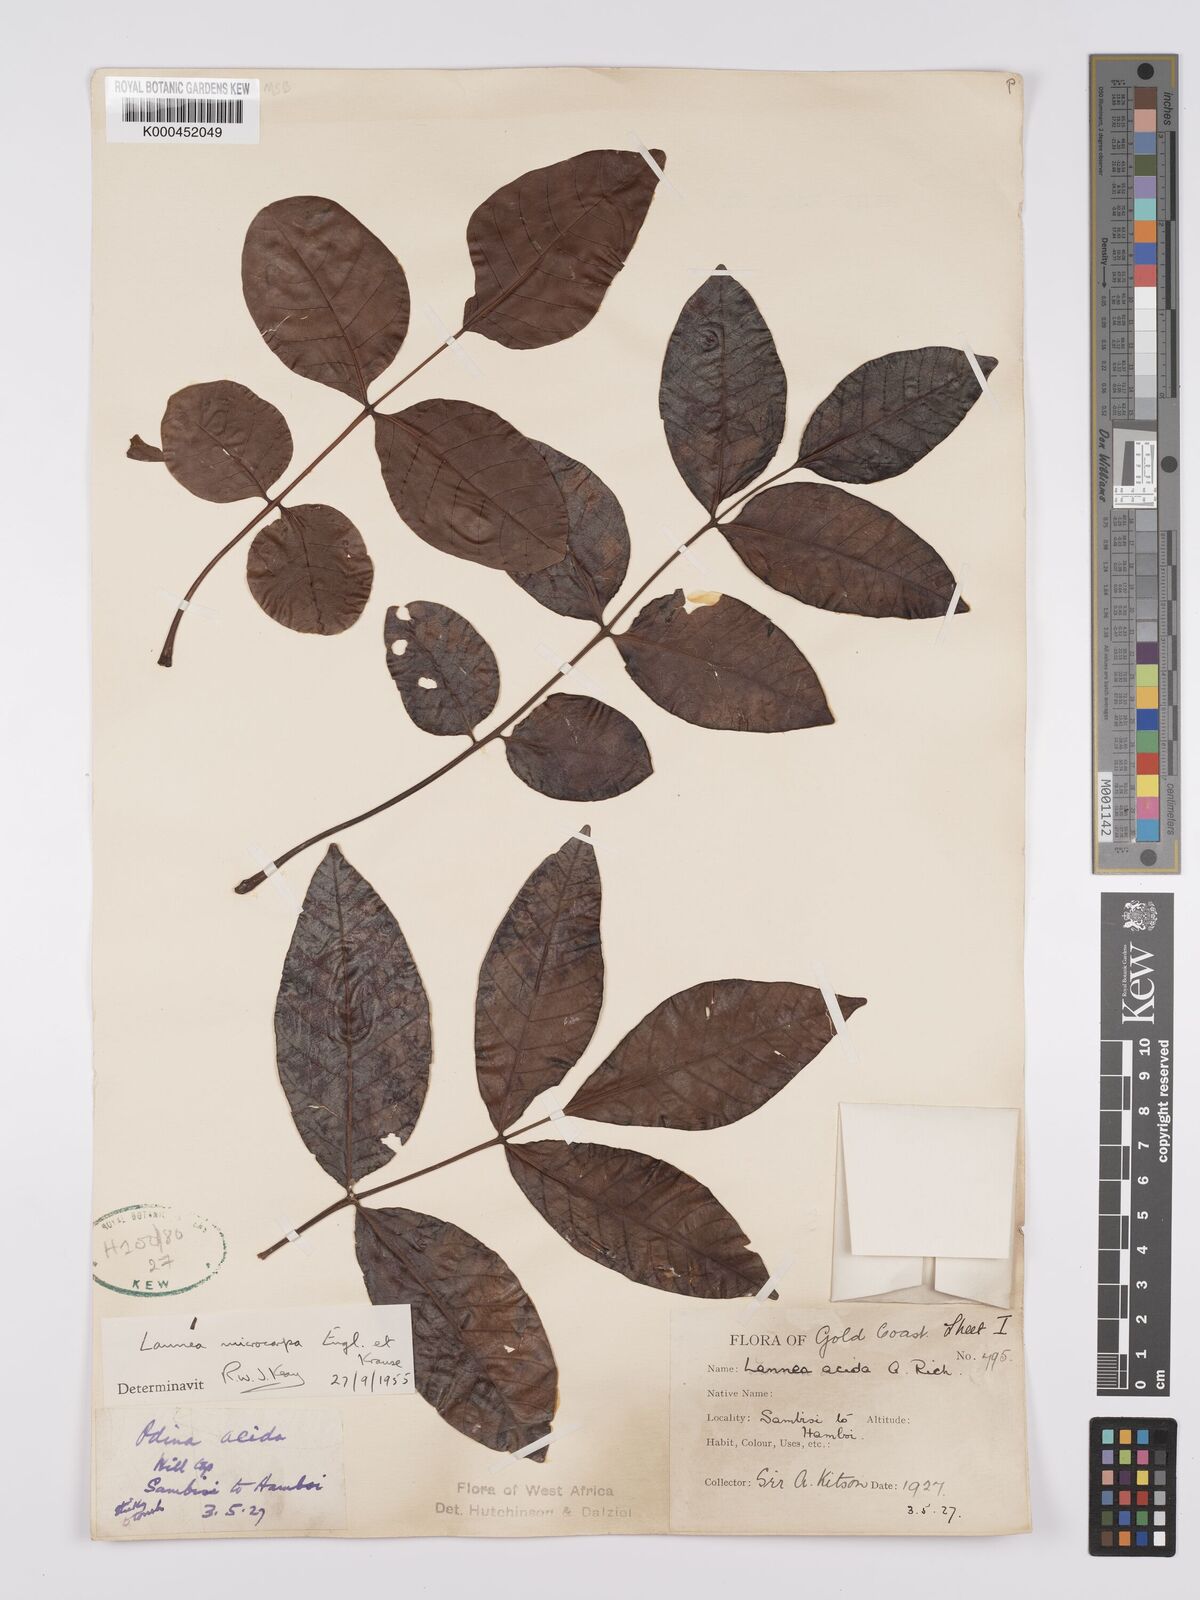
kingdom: Plantae
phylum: Tracheophyta
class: Magnoliopsida
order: Sapindales
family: Anacardiaceae
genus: Lannea
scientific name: Lannea microcarpa
